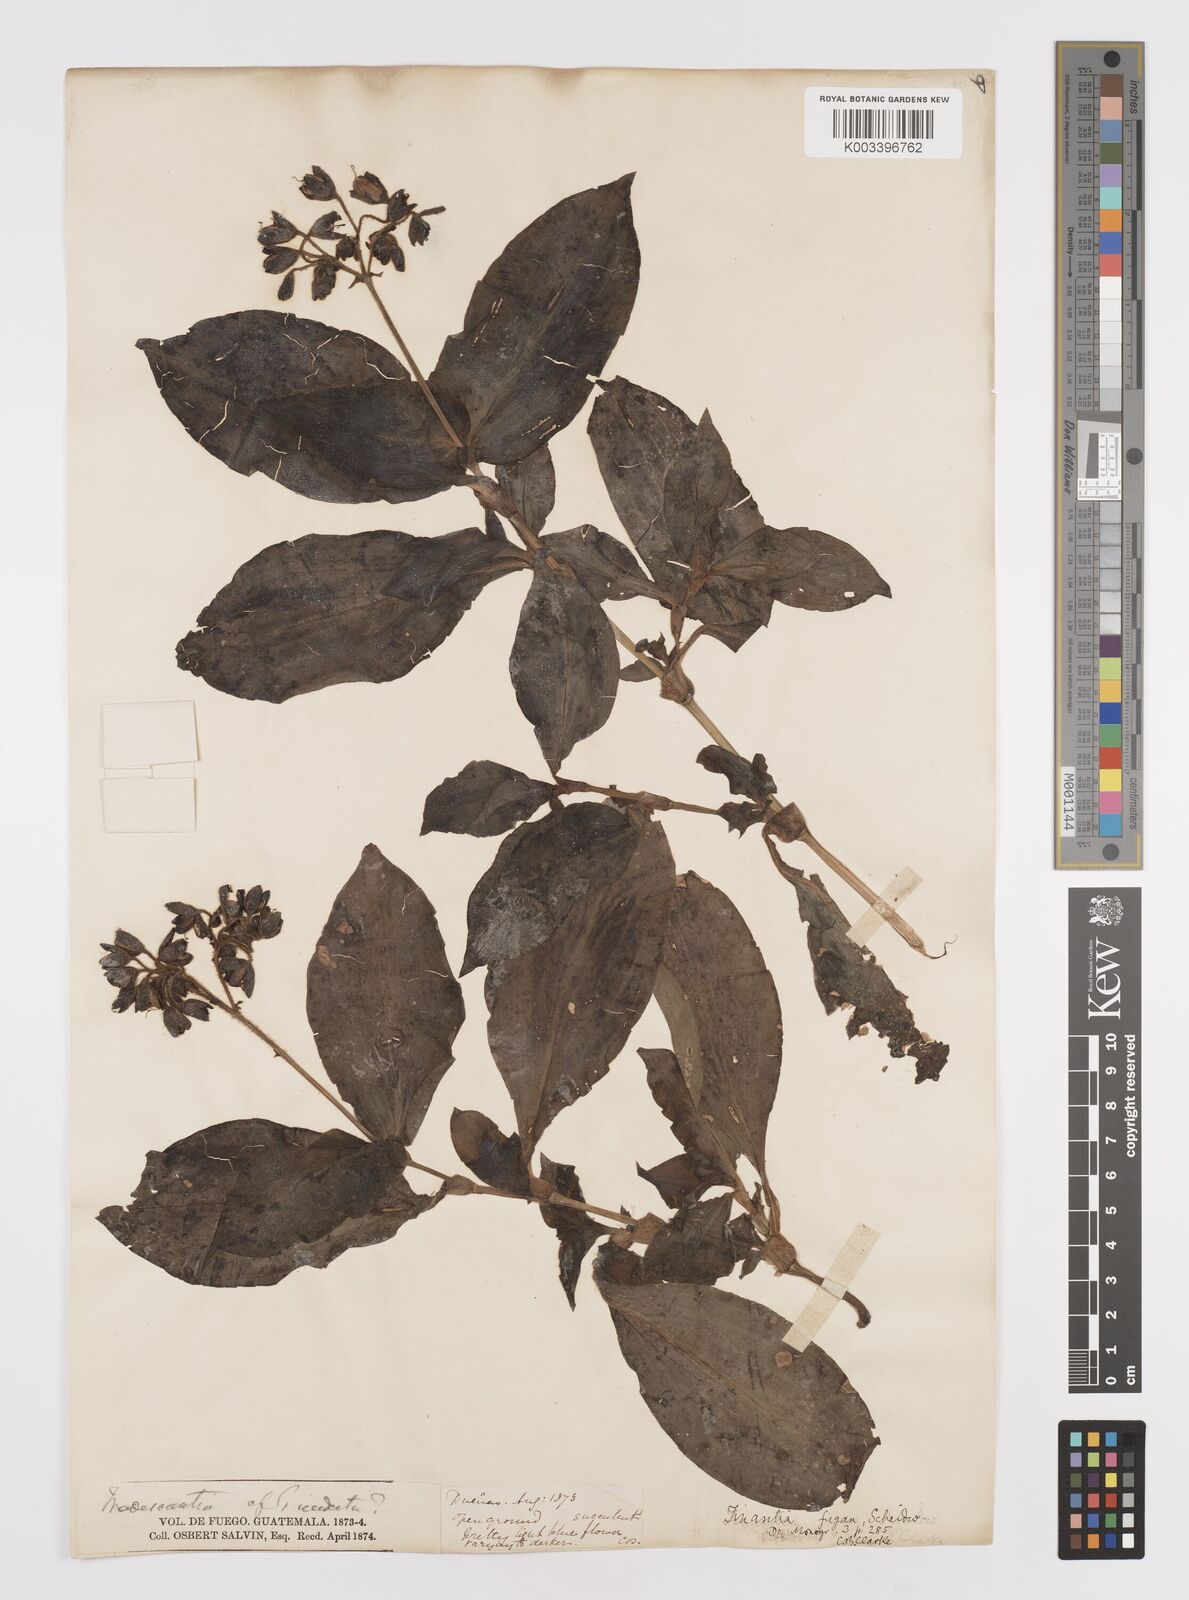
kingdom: Plantae
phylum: Tracheophyta
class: Liliopsida
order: Commelinales
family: Commelinaceae
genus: Tinantia
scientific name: Tinantia erecta
